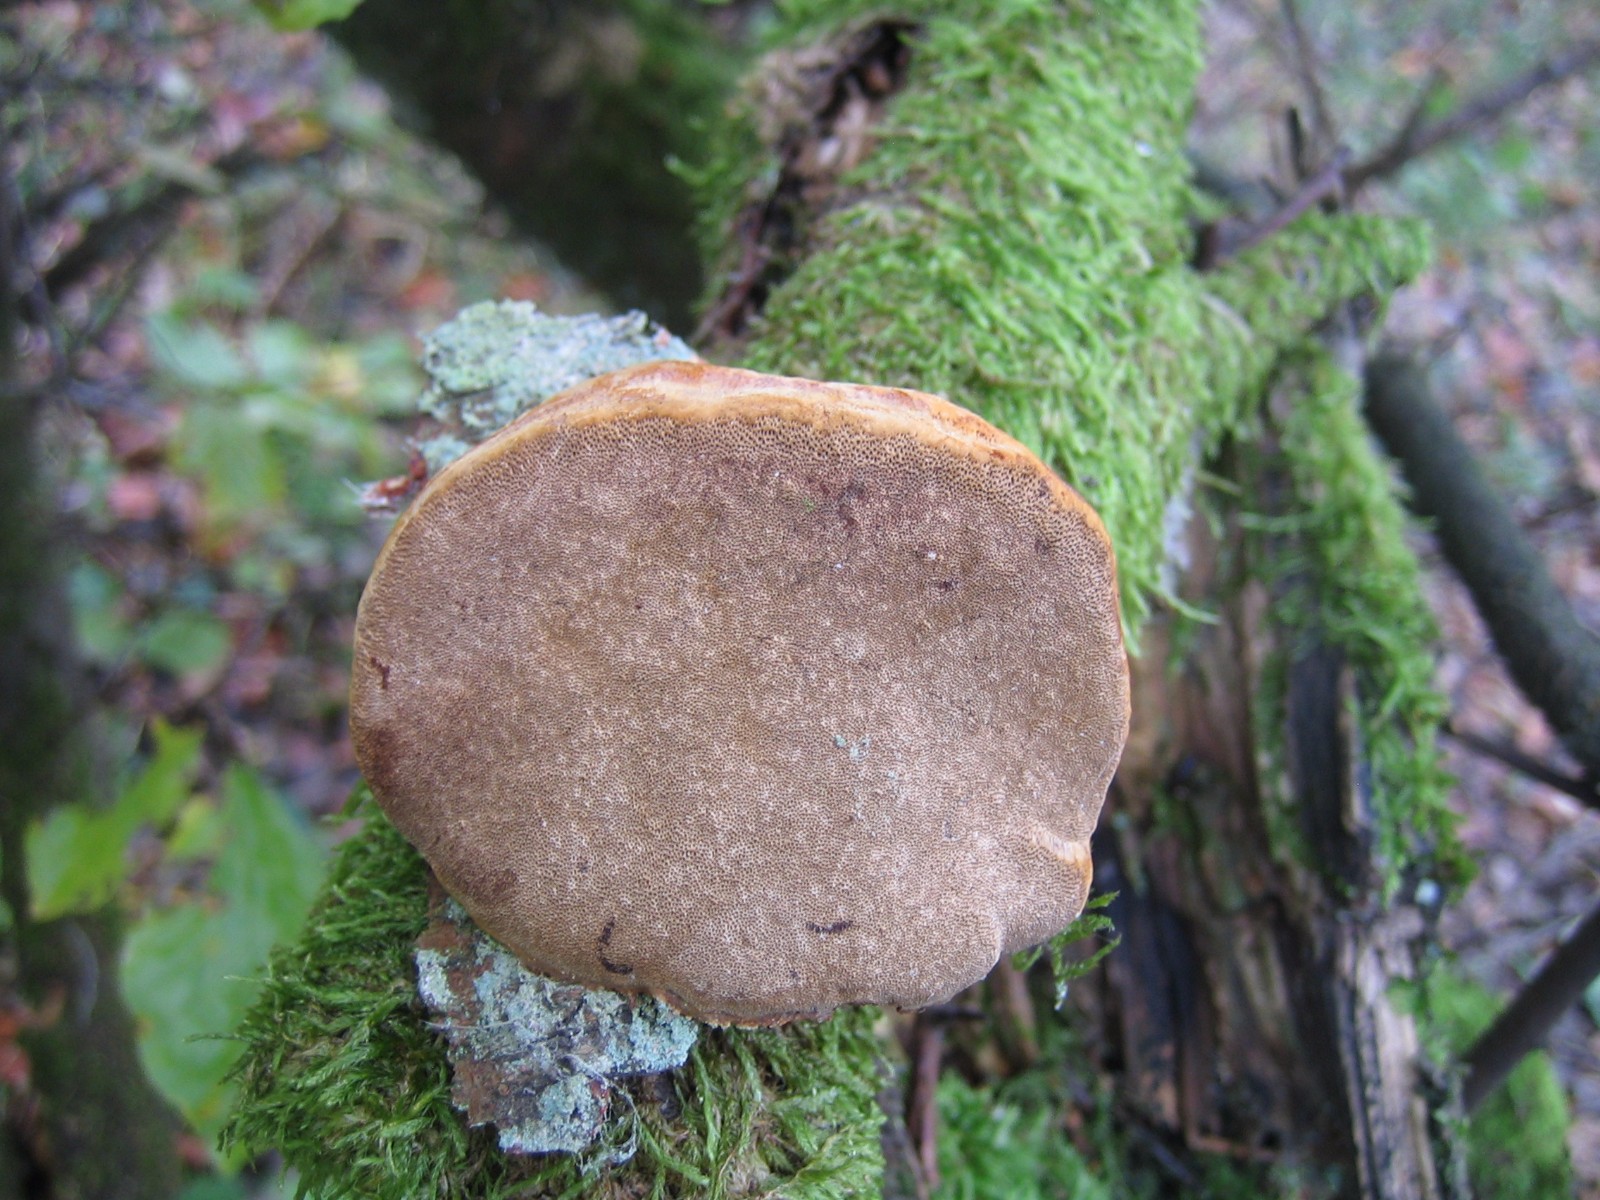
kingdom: Fungi
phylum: Basidiomycota
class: Agaricomycetes
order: Hymenochaetales
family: Hymenochaetaceae
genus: Phellinus
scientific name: Phellinus pomaceus
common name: blomme-ildporesvamp
